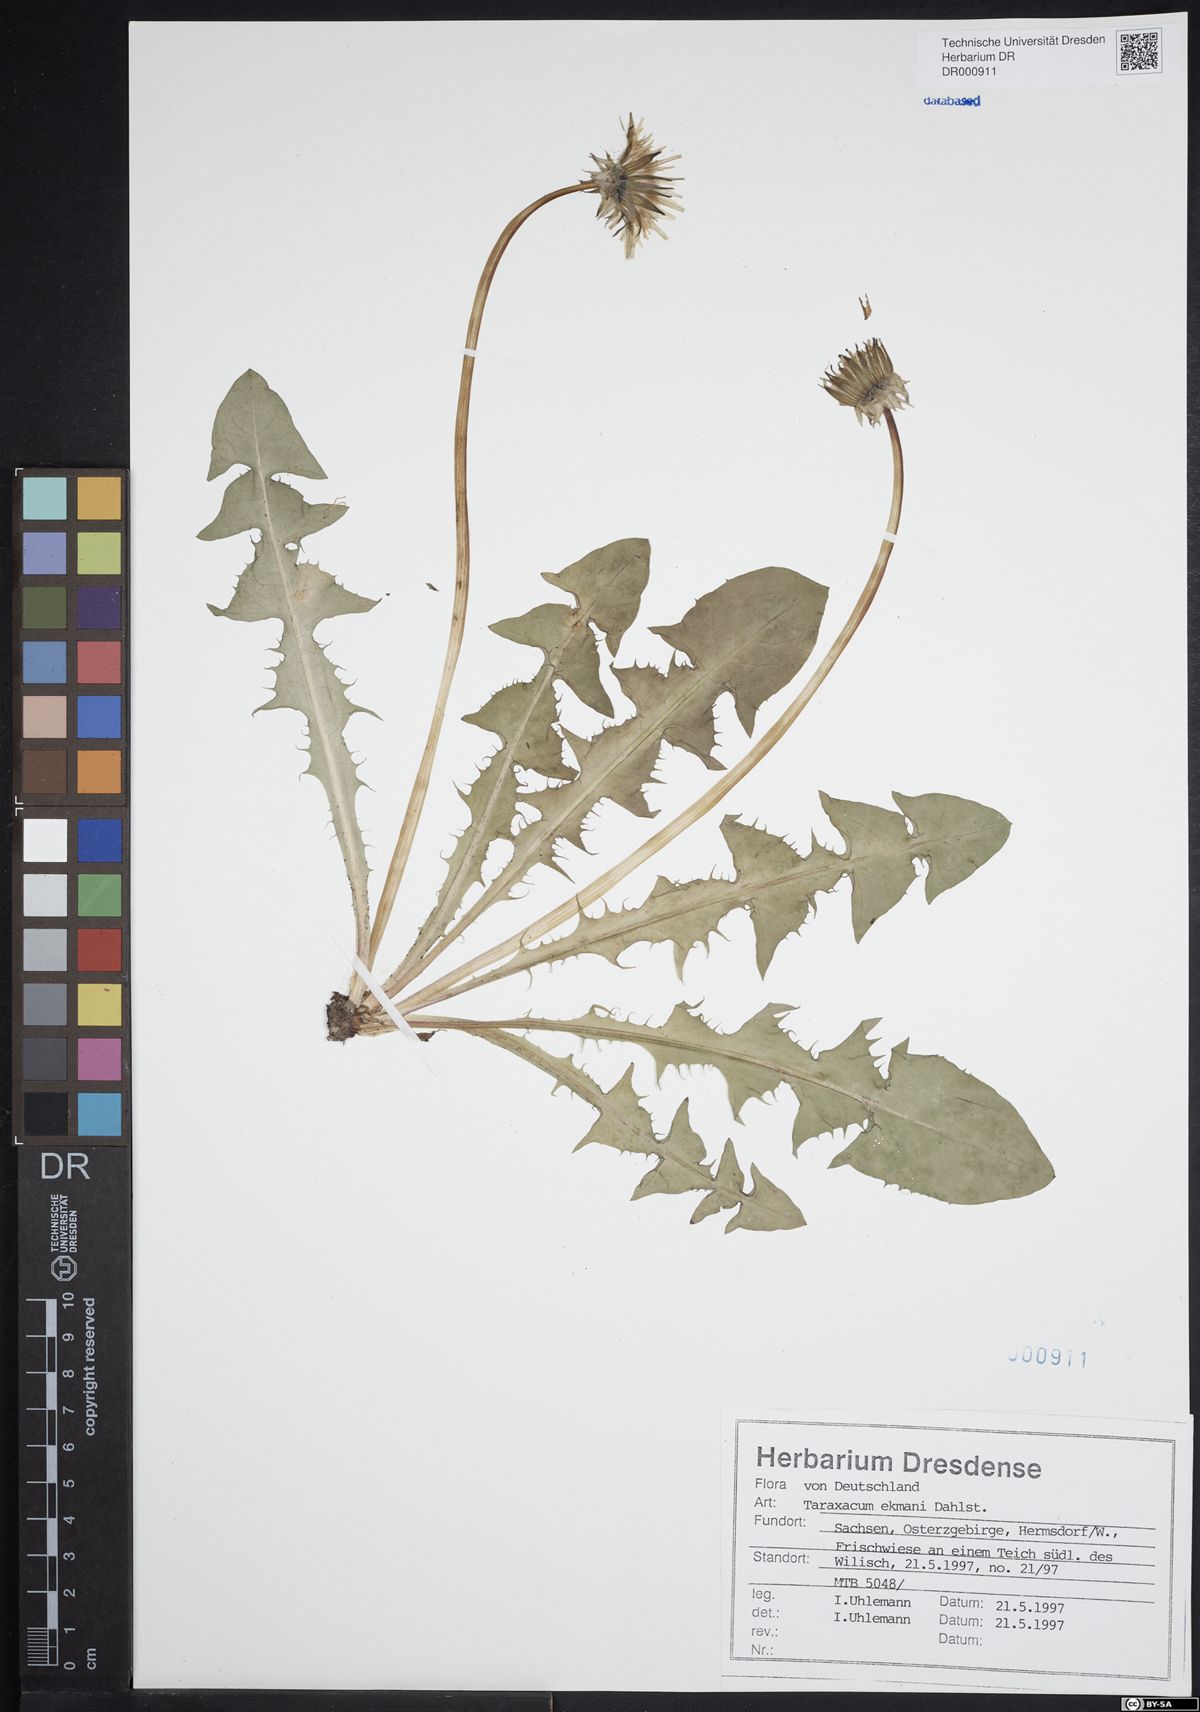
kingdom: Plantae
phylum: Tracheophyta
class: Magnoliopsida
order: Asterales
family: Asteraceae
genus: Taraxacum
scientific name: Taraxacum ekmanii
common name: Ekman's dandelion
